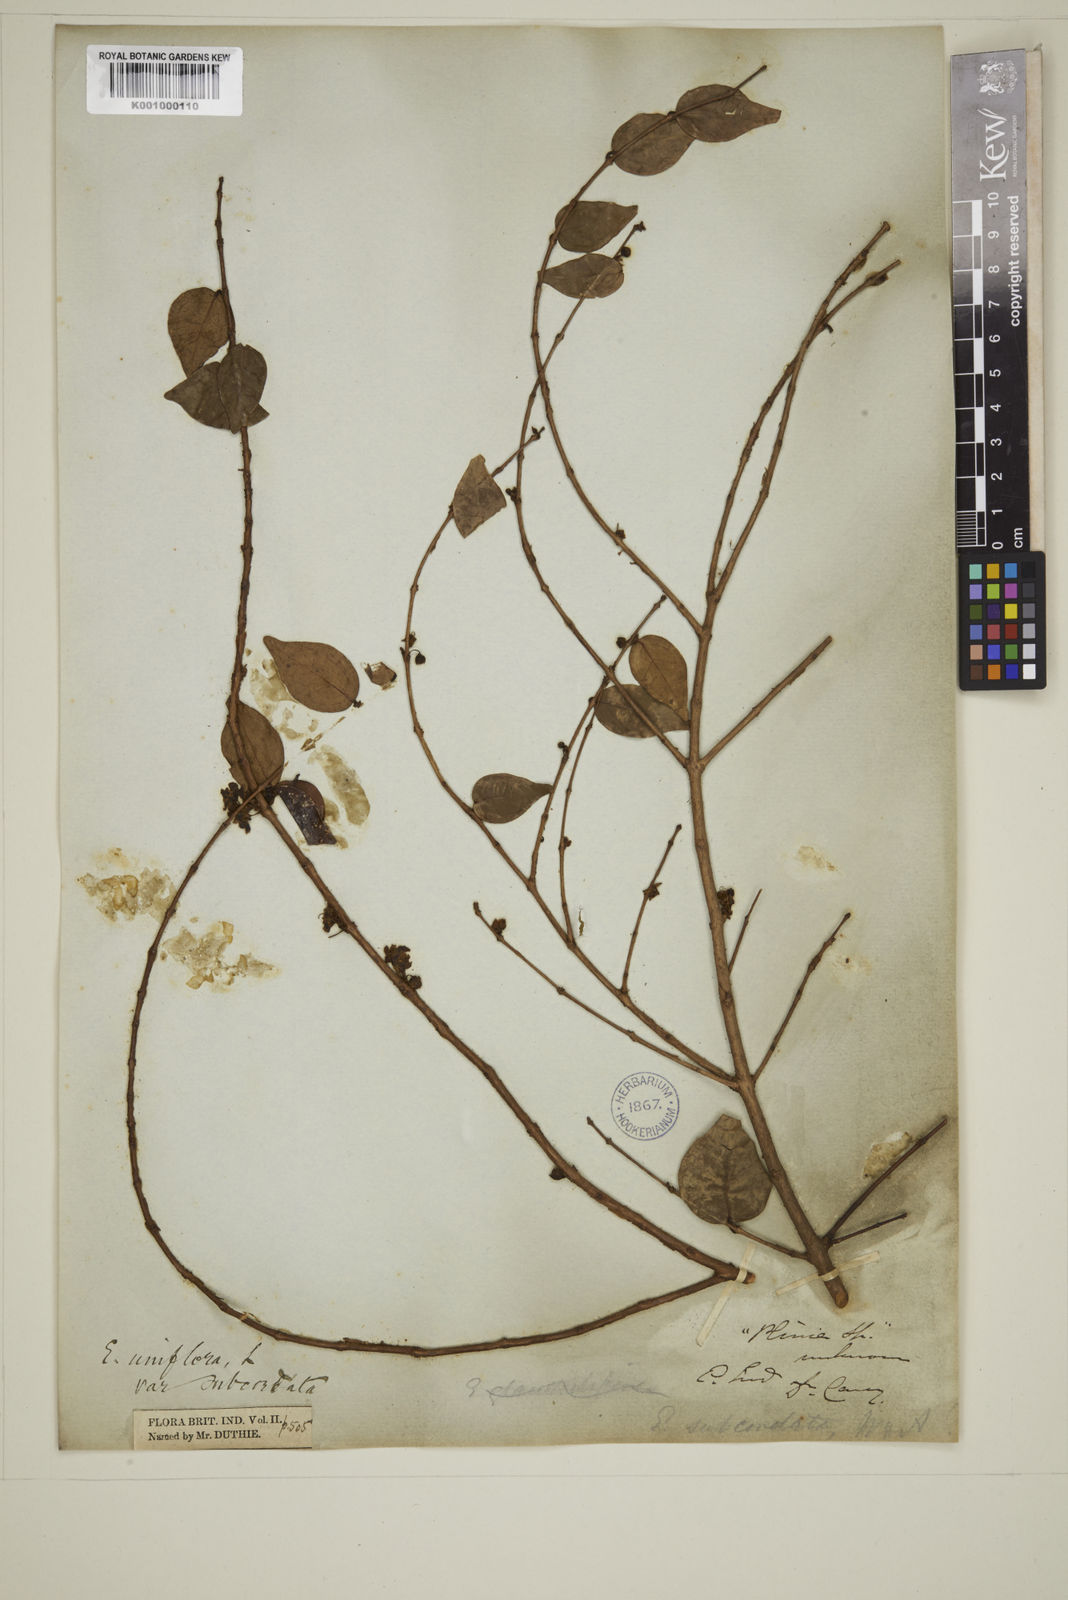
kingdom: Plantae
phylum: Tracheophyta
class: Magnoliopsida
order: Myrtales
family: Myrtaceae
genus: Eugenia
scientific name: Eugenia uniflora
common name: Surinam cherry
